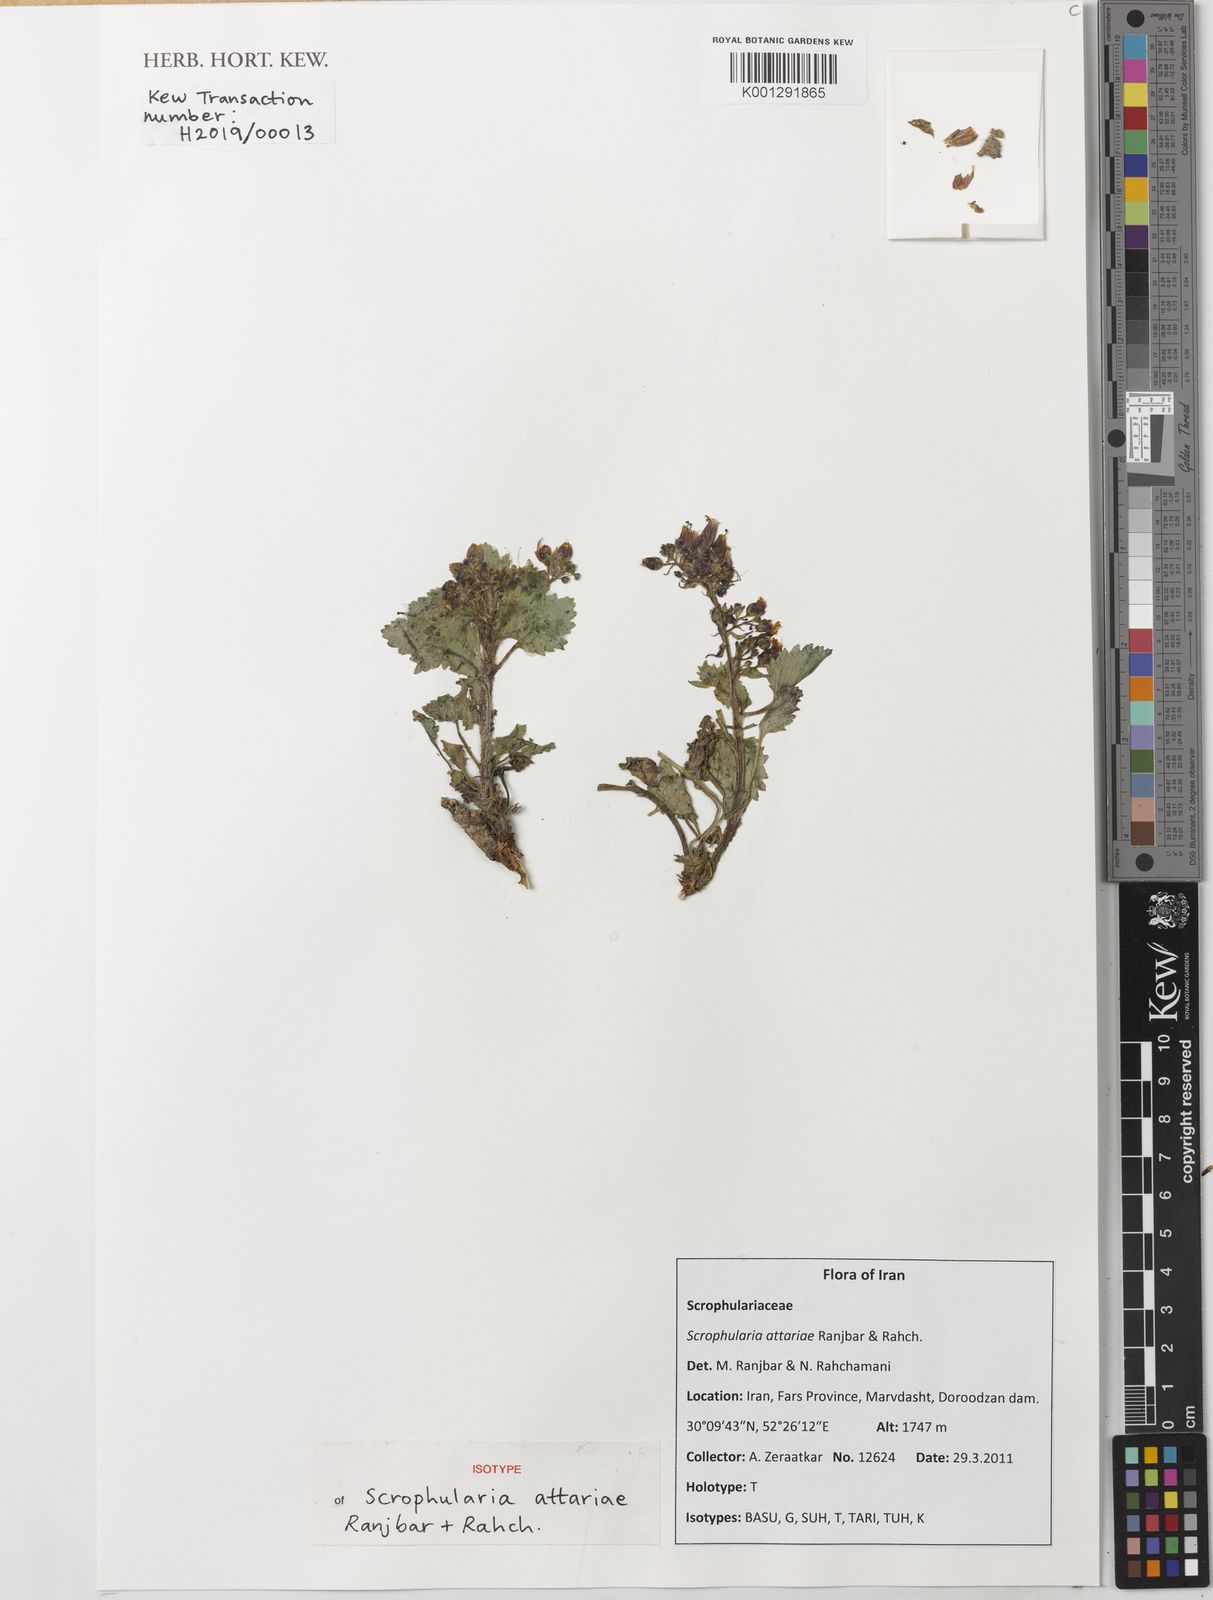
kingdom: Plantae
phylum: Tracheophyta
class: Magnoliopsida
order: Lamiales
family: Scrophulariaceae
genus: Scrophularia
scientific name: Scrophularia attariae
